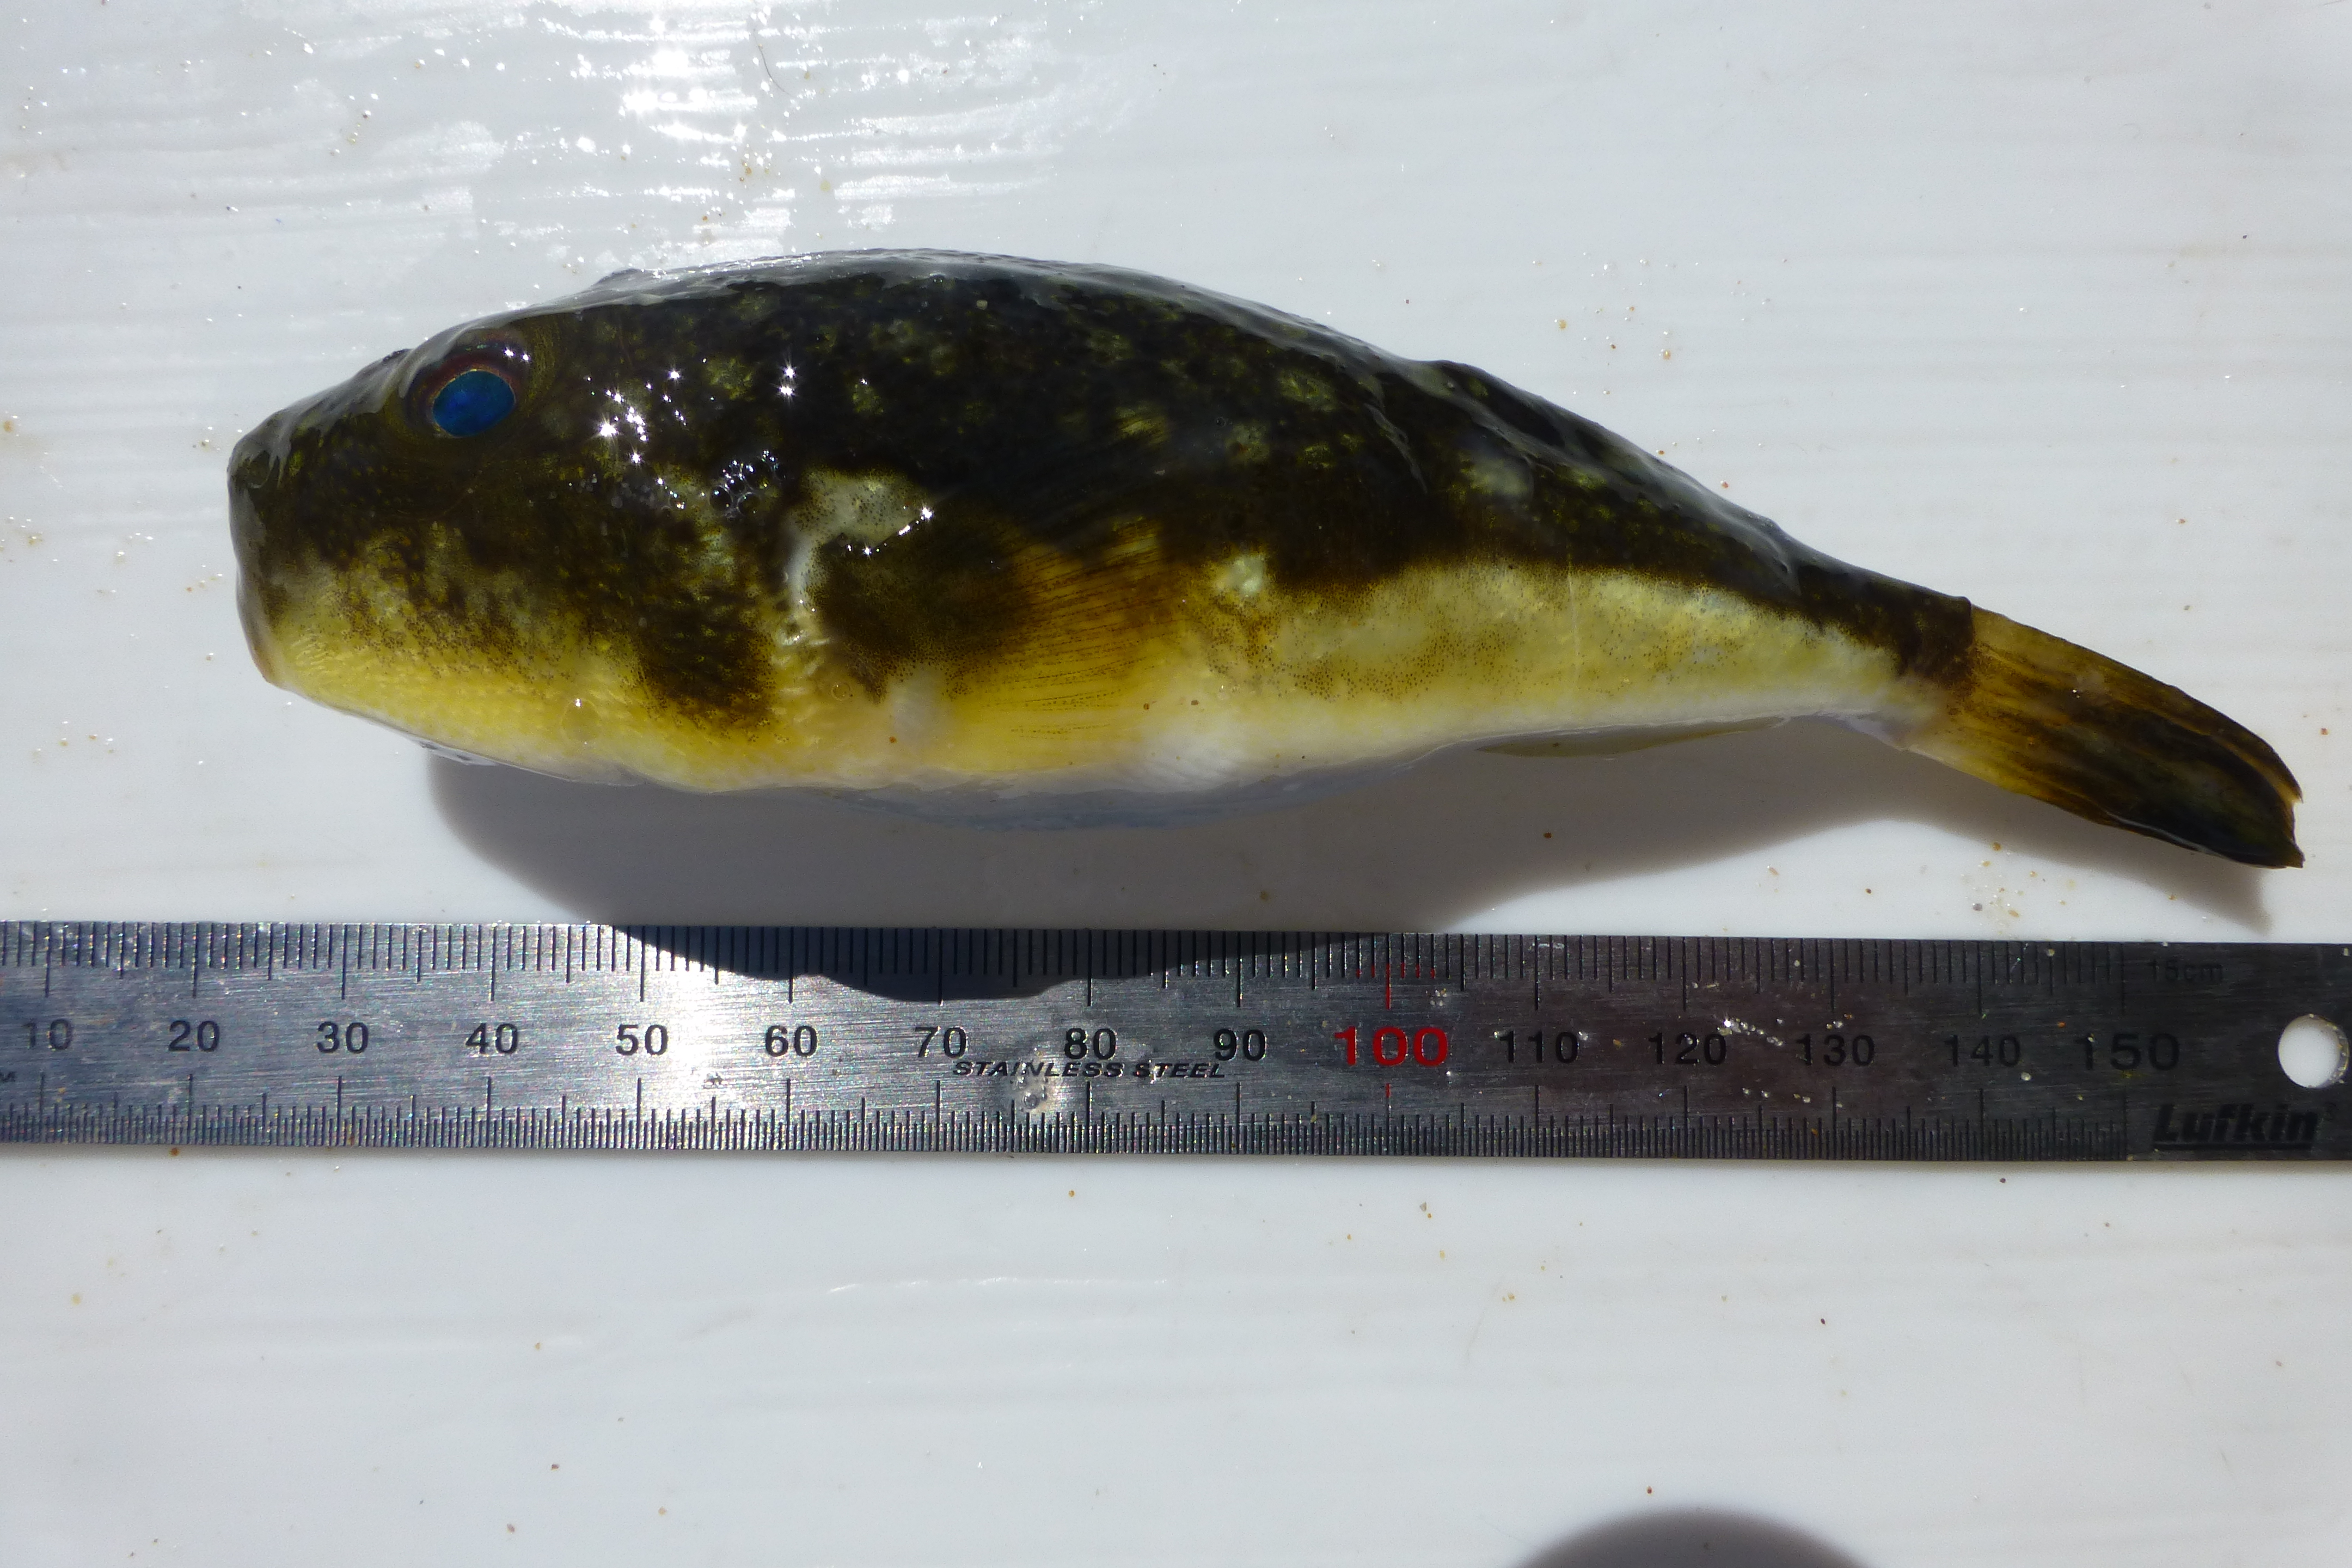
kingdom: Animalia
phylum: Chordata
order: Tetraodontiformes
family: Tetraodontidae
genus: Amblyrhynchotes
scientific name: Amblyrhynchotes honckenii
